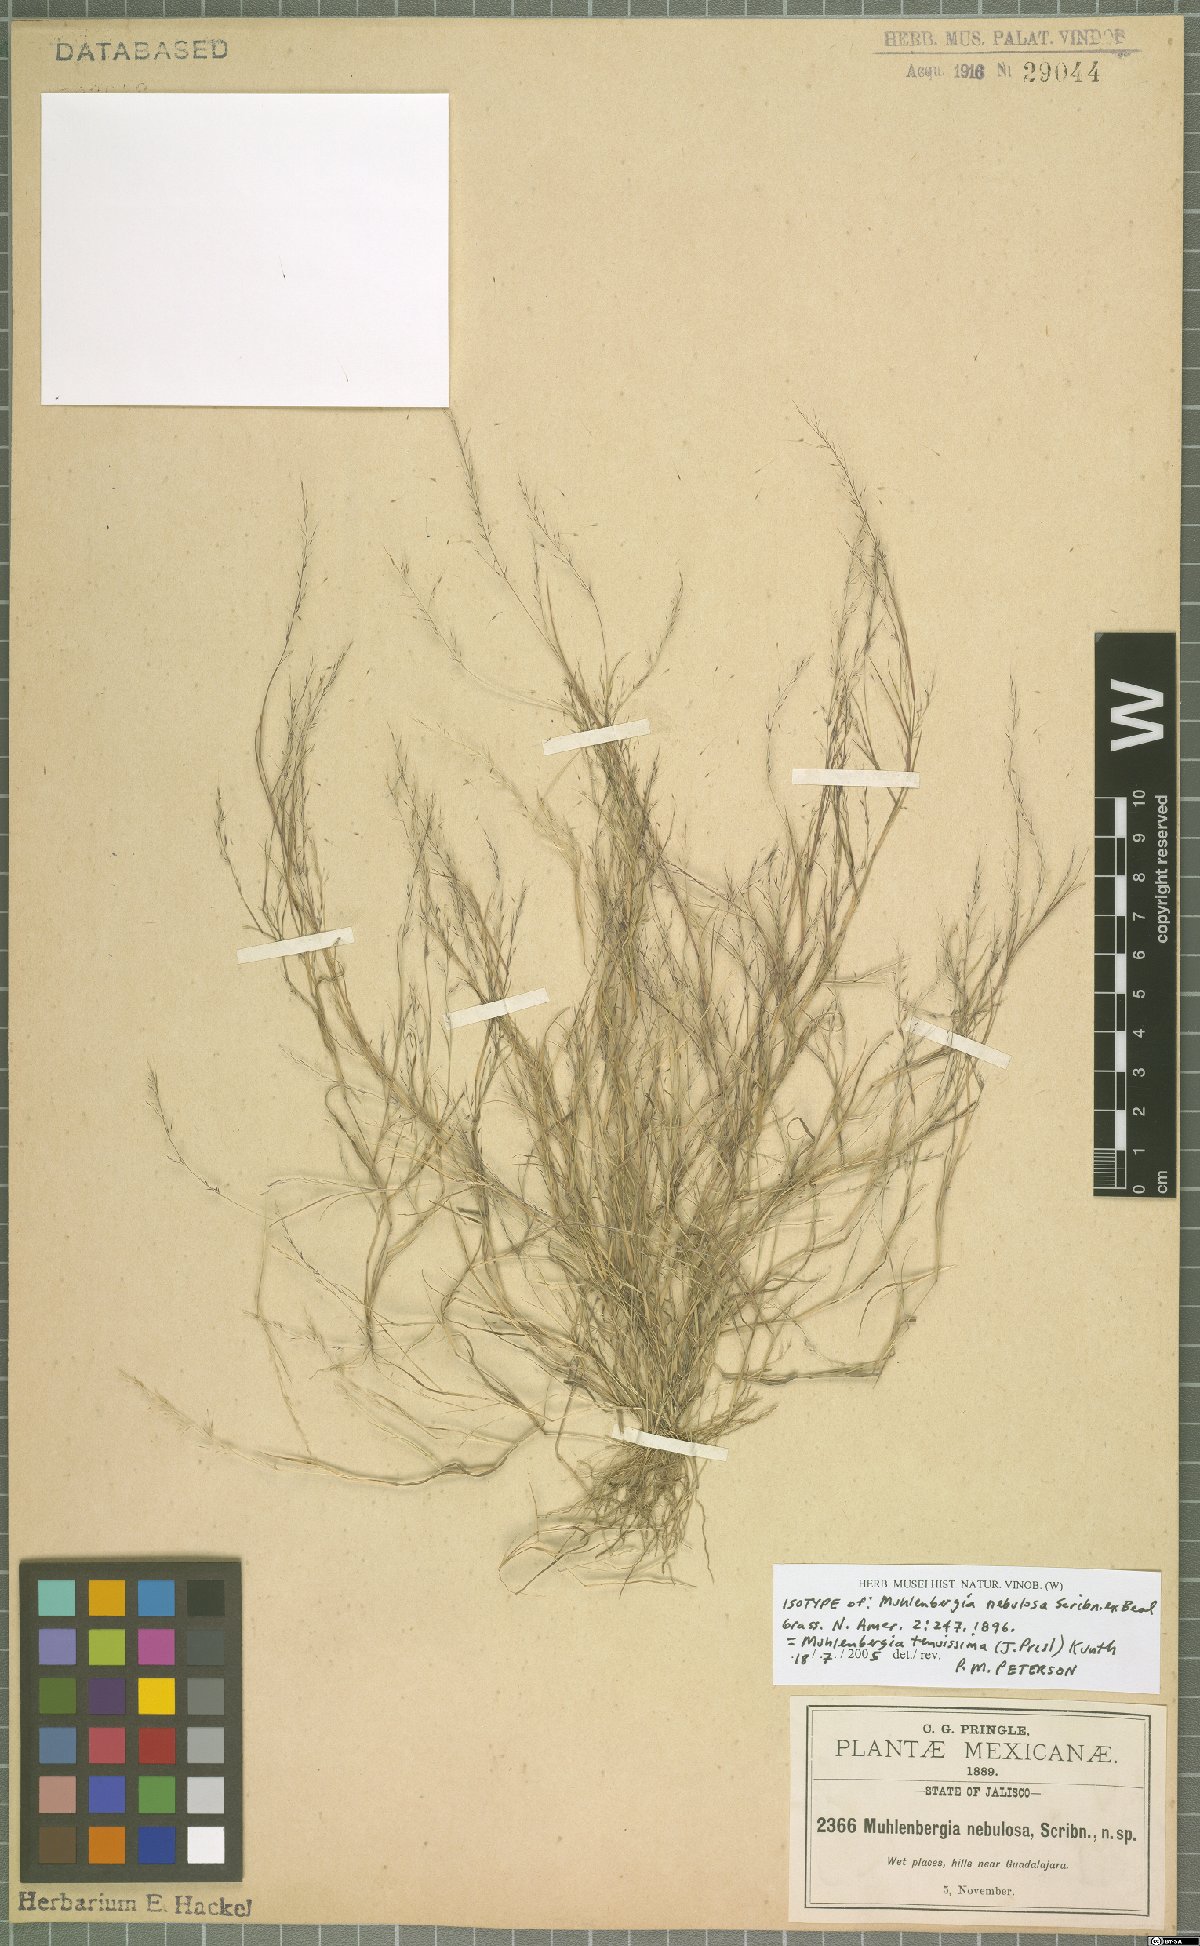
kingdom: Plantae
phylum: Tracheophyta
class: Liliopsida
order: Poales
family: Poaceae
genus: Muhlenbergia
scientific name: Muhlenbergia tenuissima
